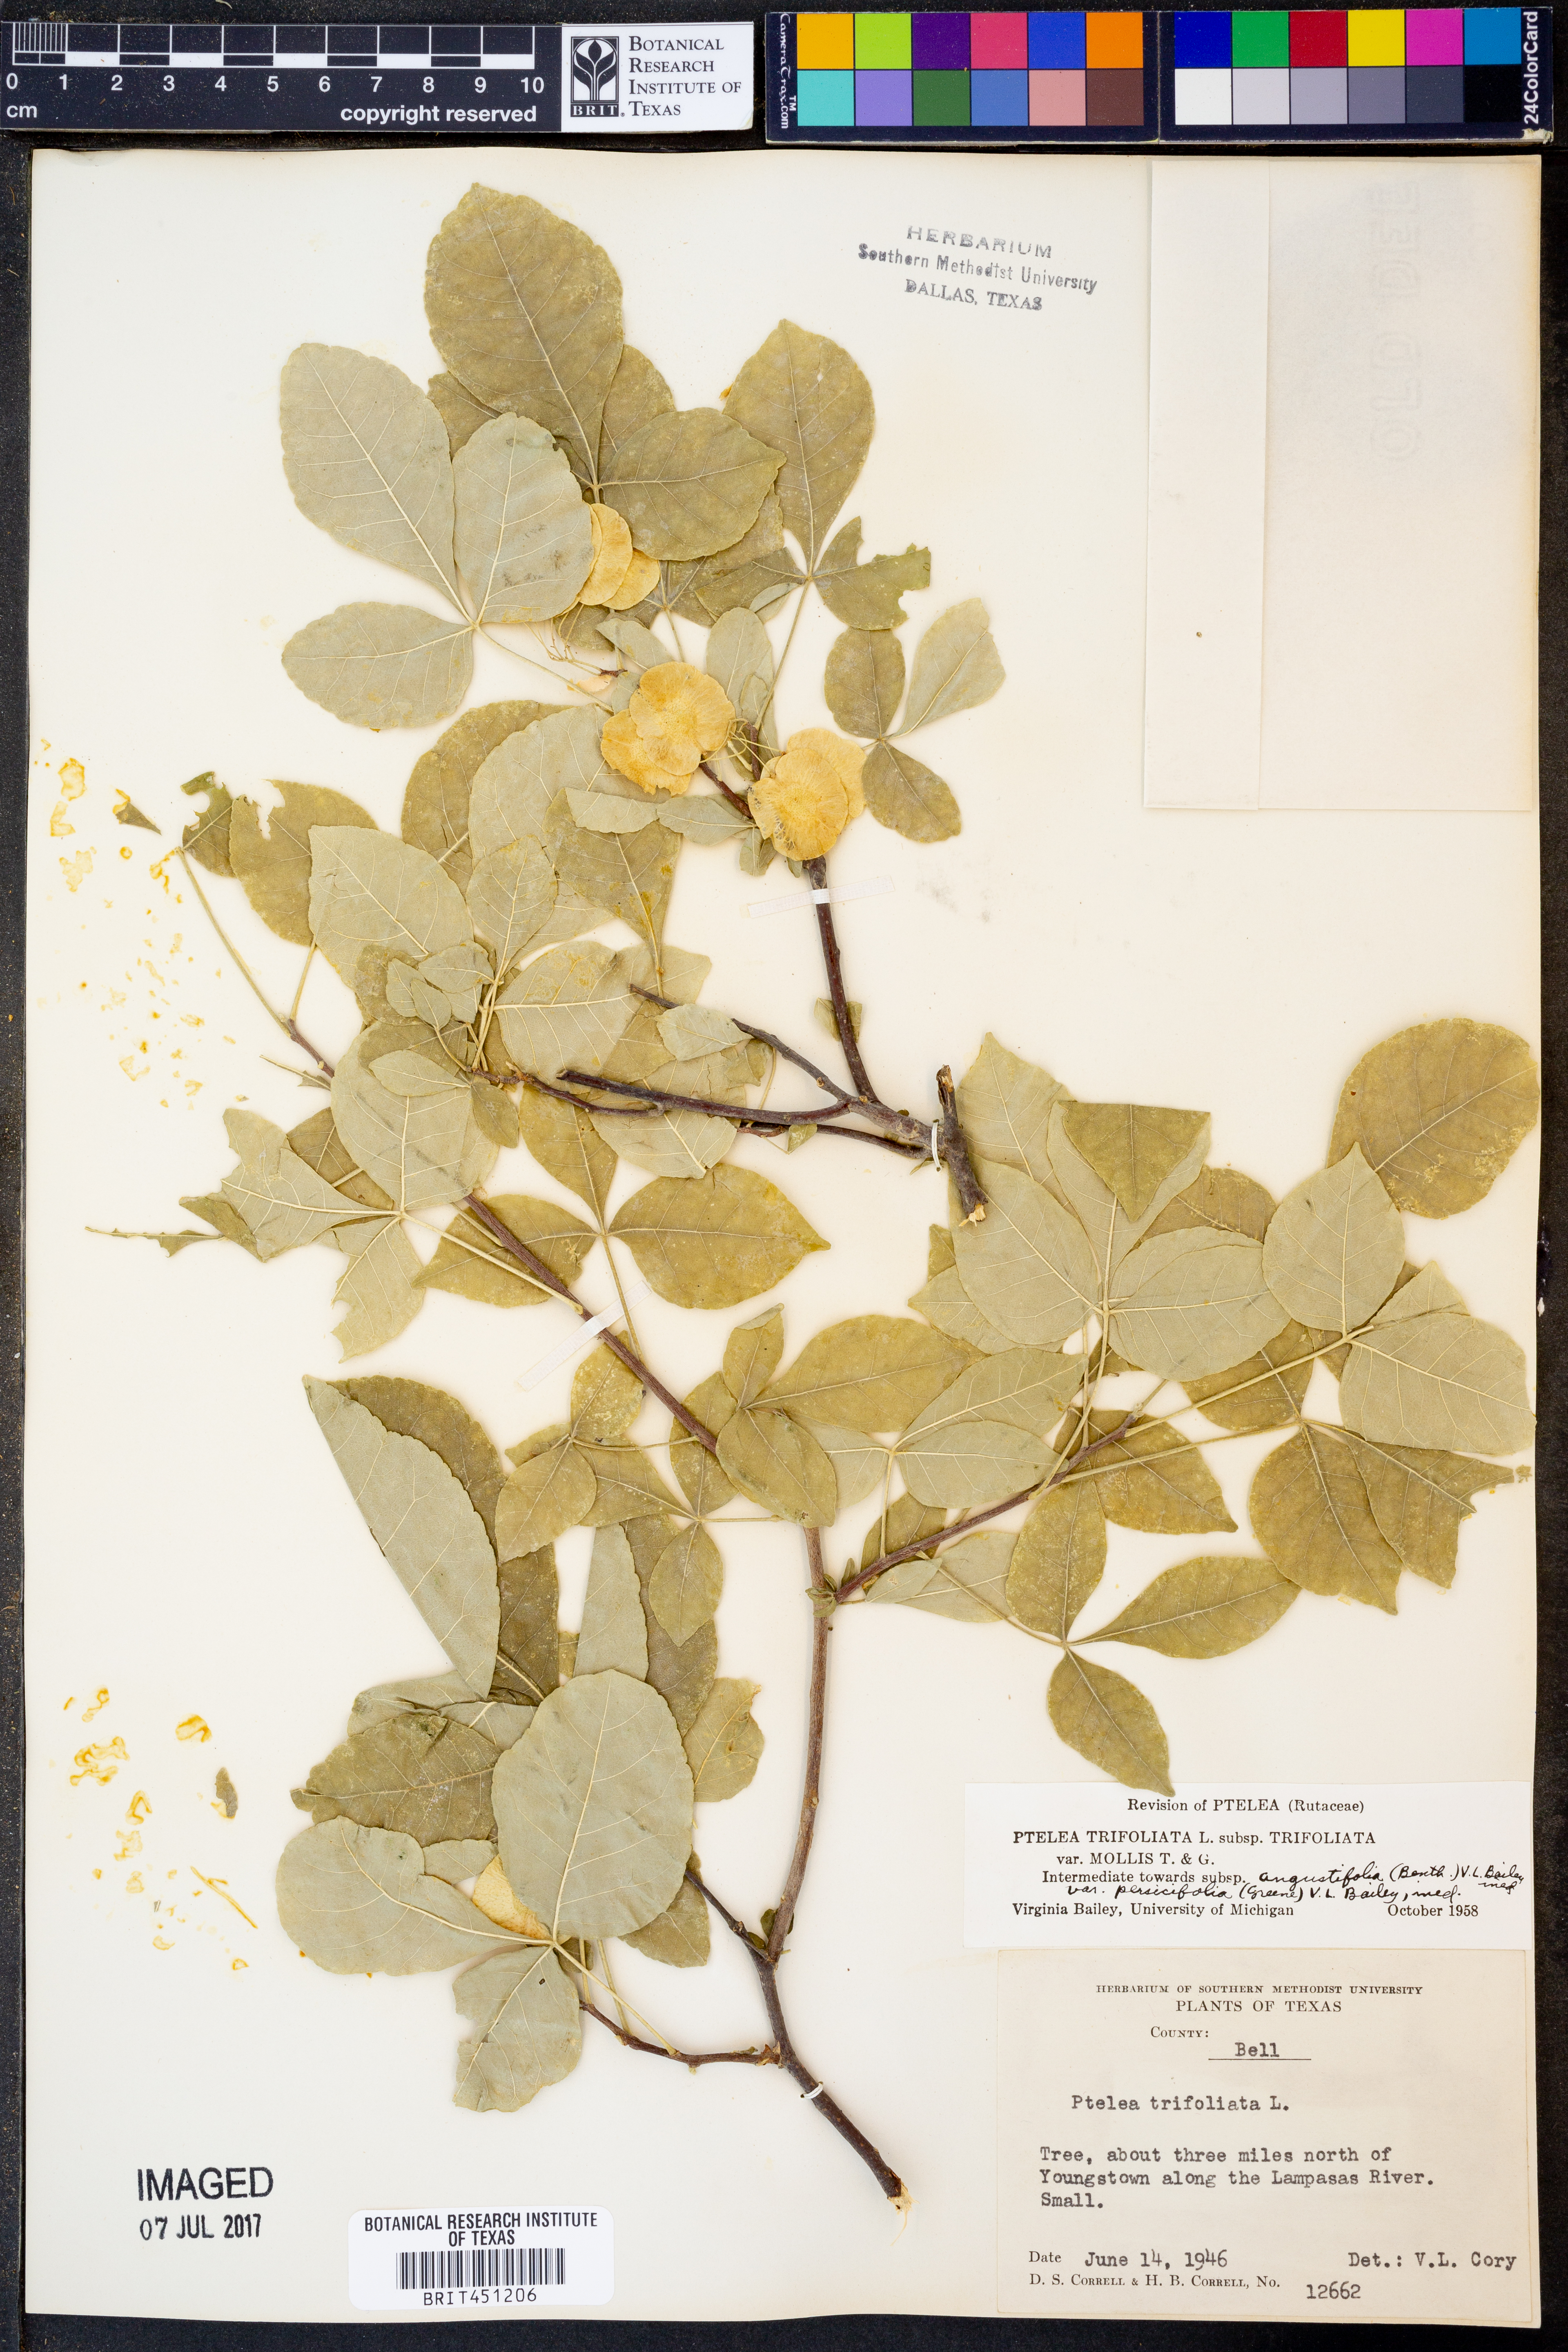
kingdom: Plantae
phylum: Tracheophyta
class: Magnoliopsida
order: Sapindales
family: Rutaceae
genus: Ptelea
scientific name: Ptelea trifoliata
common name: Common hop-tree
